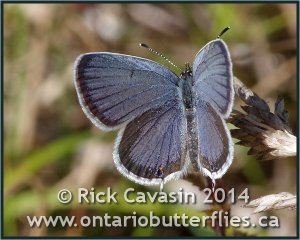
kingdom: Animalia
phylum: Arthropoda
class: Insecta
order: Lepidoptera
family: Lycaenidae
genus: Elkalyce
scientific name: Elkalyce comyntas
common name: Eastern Tailed-Blue
